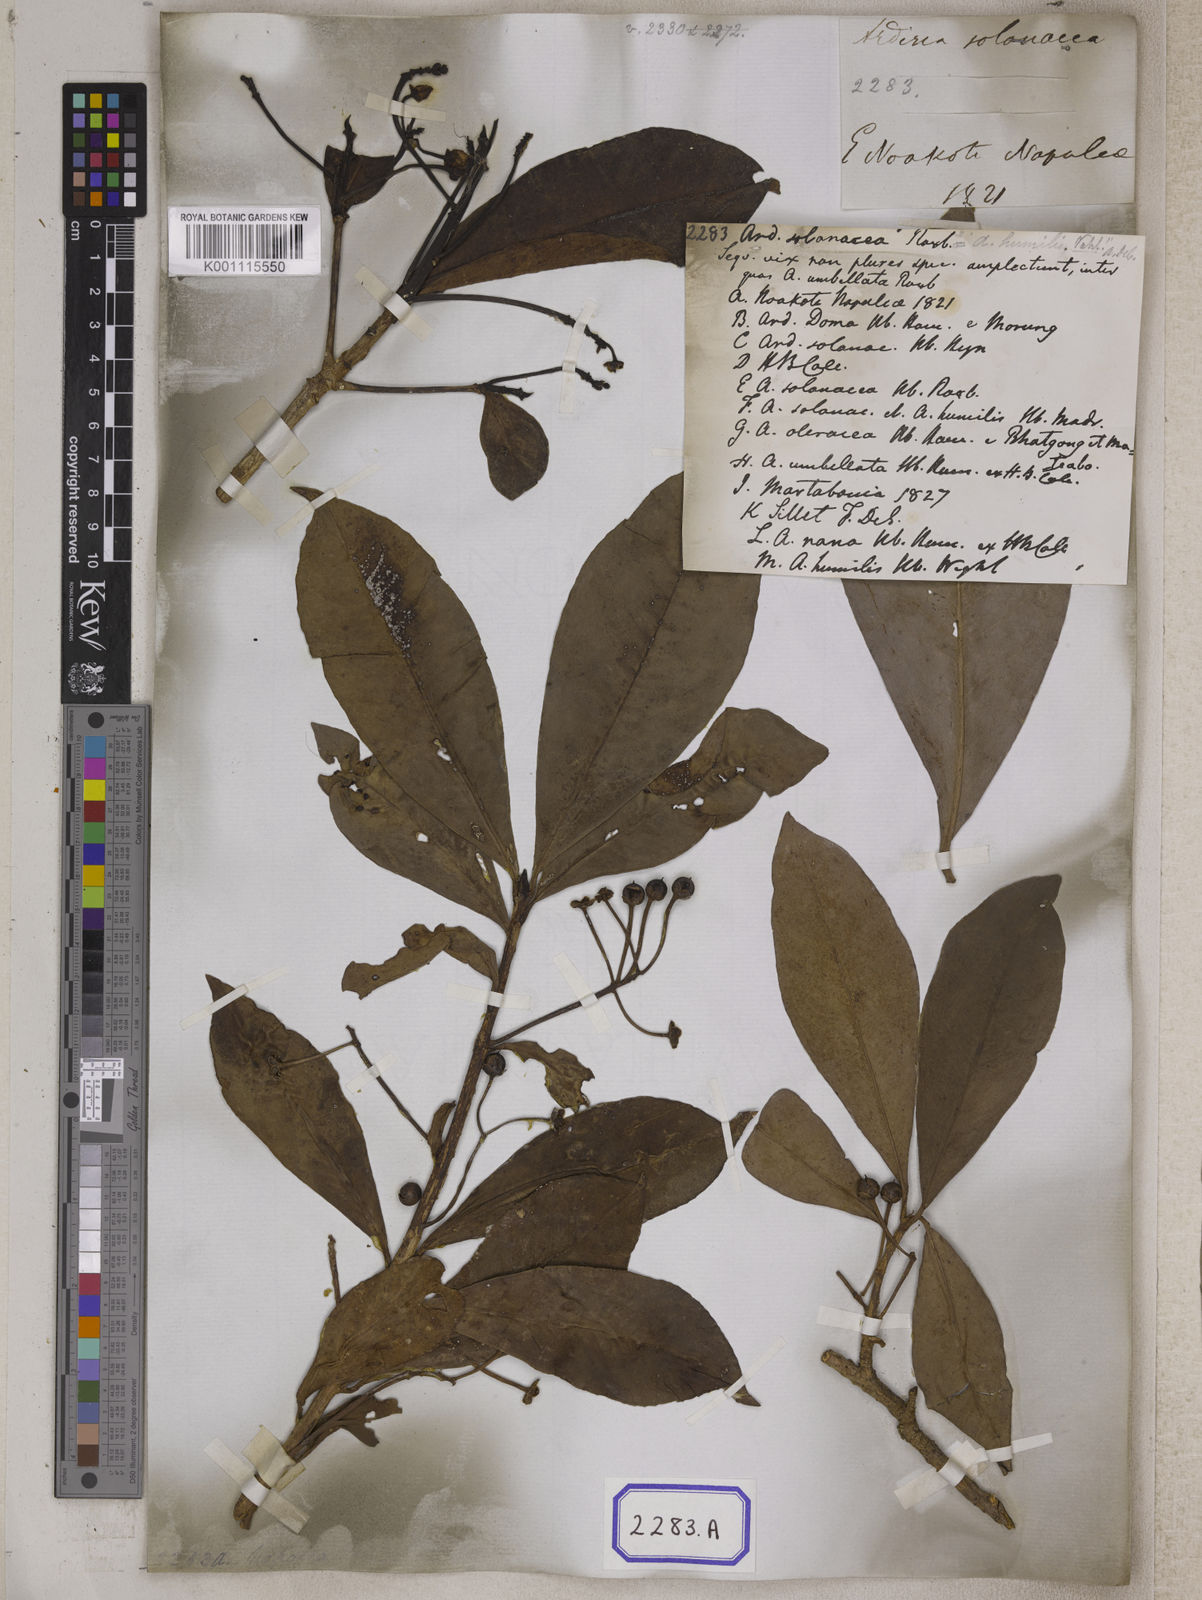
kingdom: Plantae
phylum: Tracheophyta
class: Magnoliopsida
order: Ericales
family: Primulaceae
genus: Ardisia
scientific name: Ardisia humilis
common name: Low shoebutton
